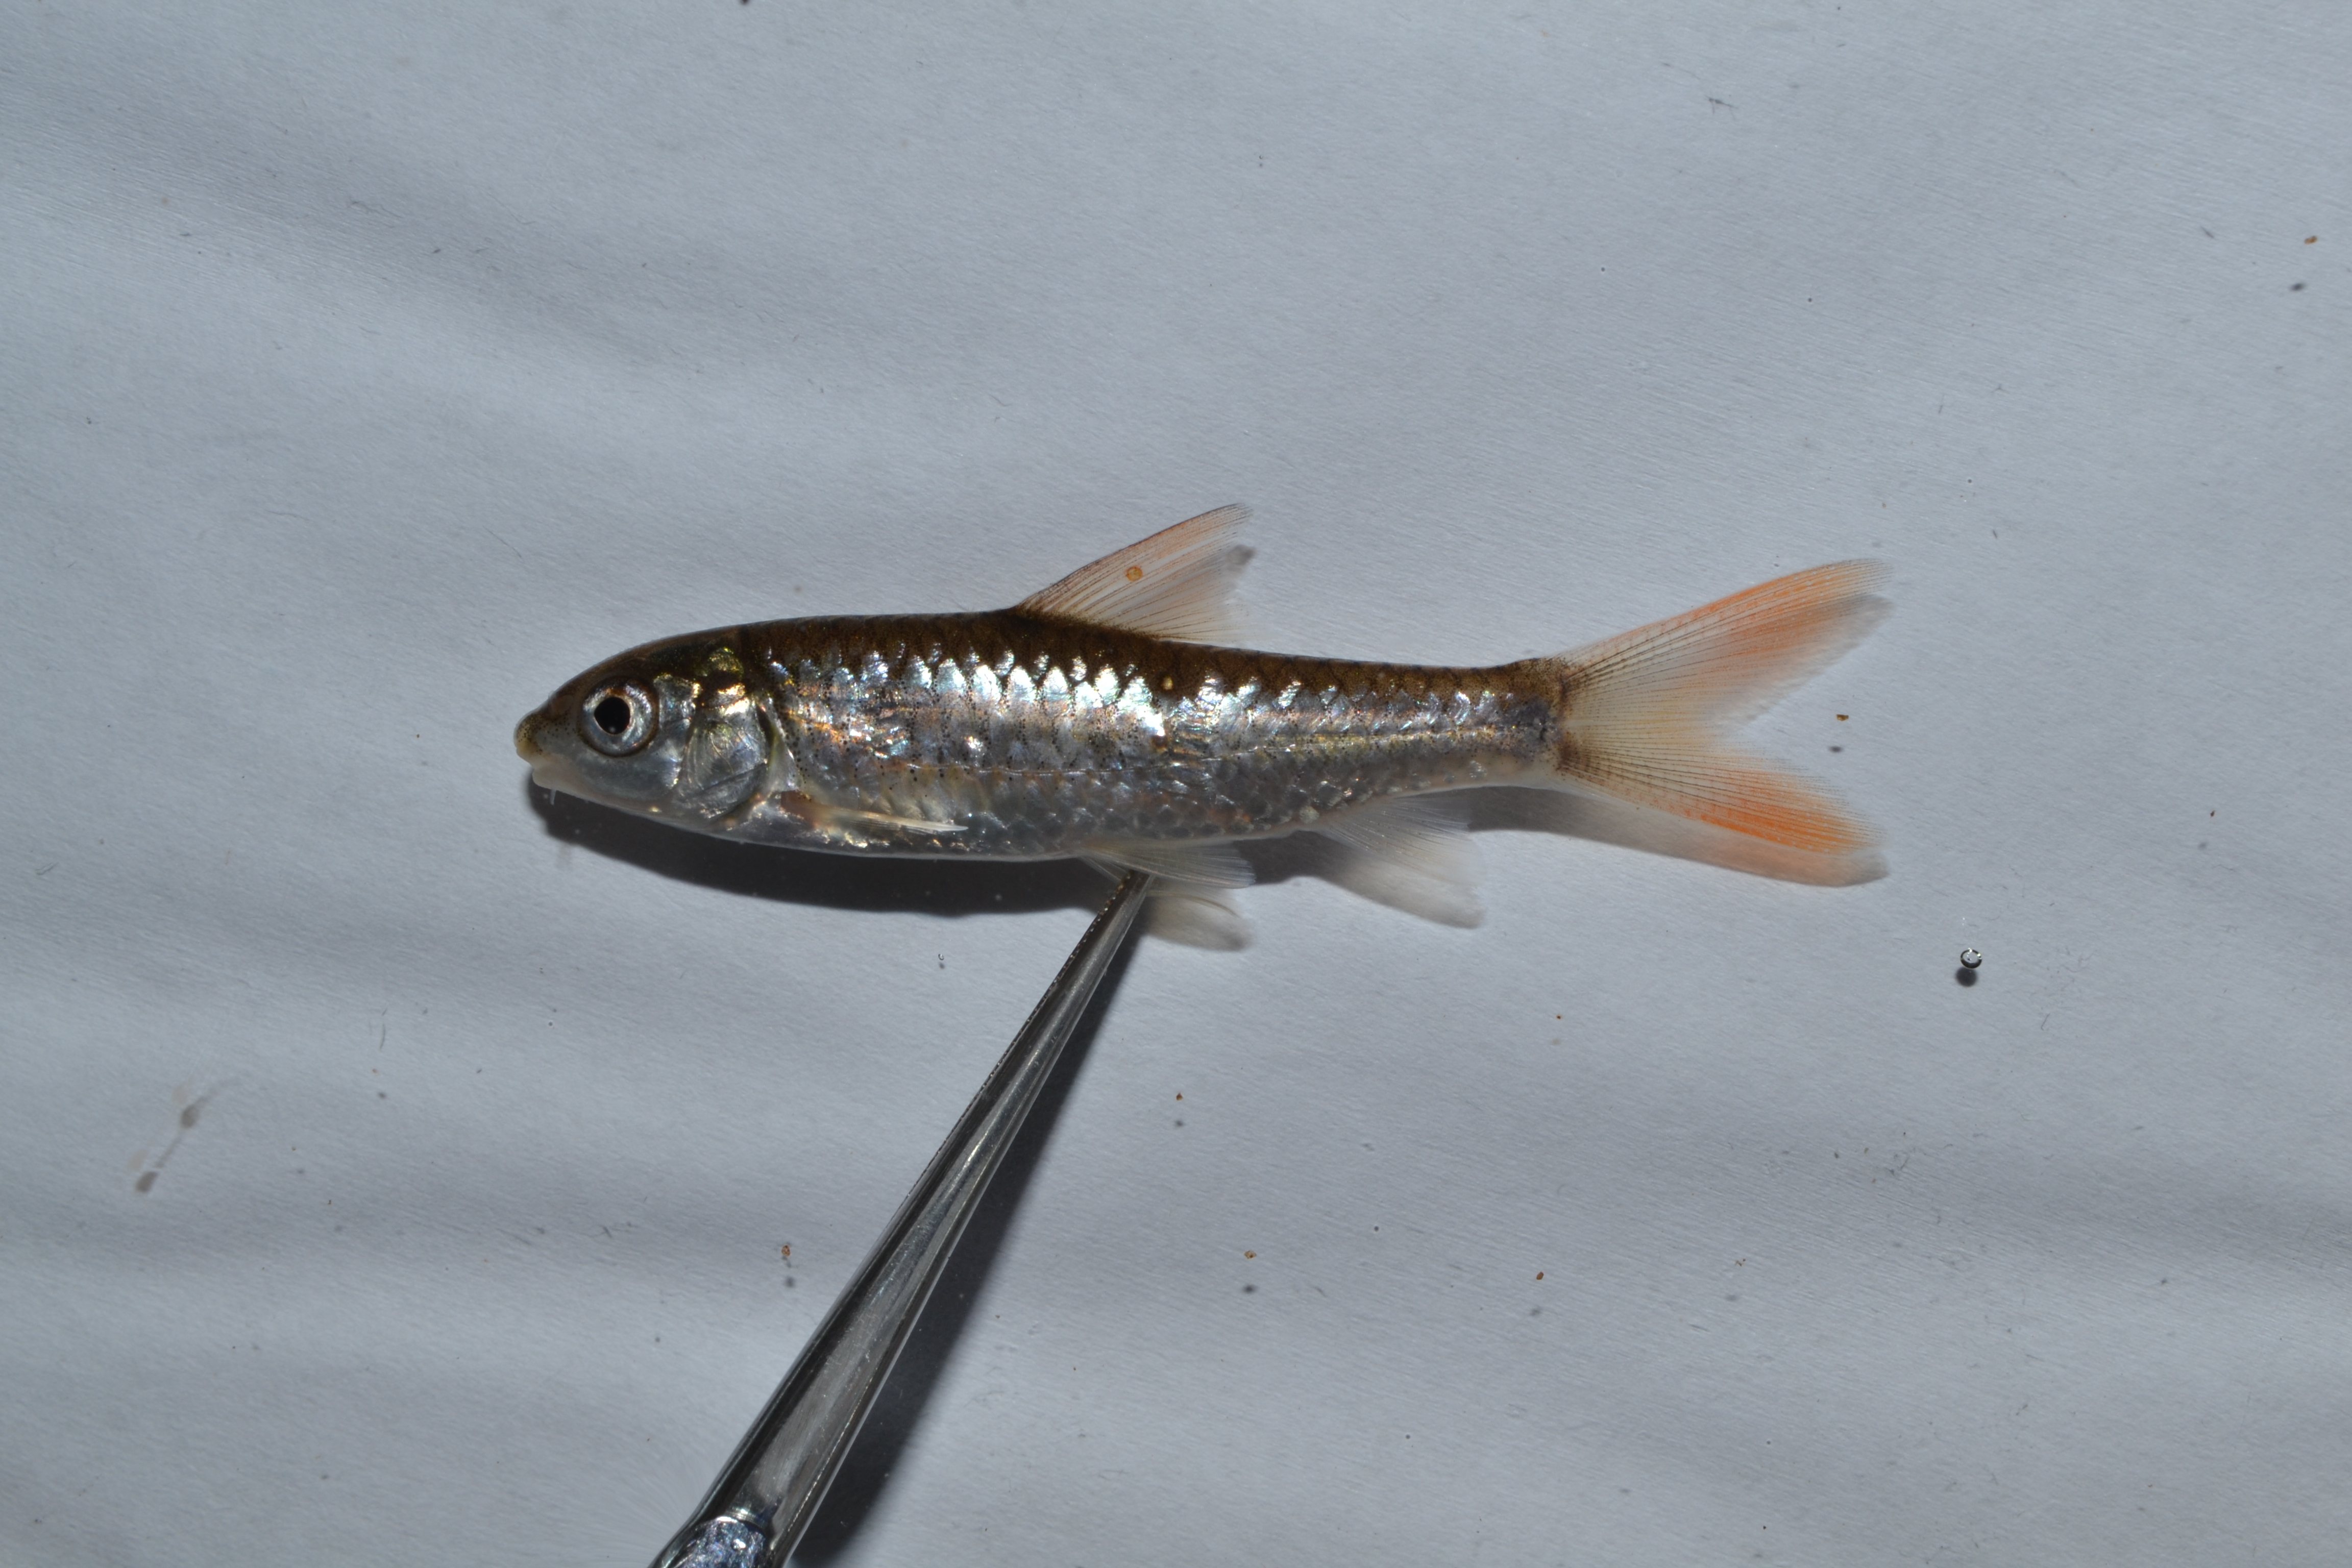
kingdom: Animalia
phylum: Chordata
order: Cypriniformes
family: Cyprinidae
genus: Labeobarbus
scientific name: Labeobarbus marequensis
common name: Largescale yellowfish
